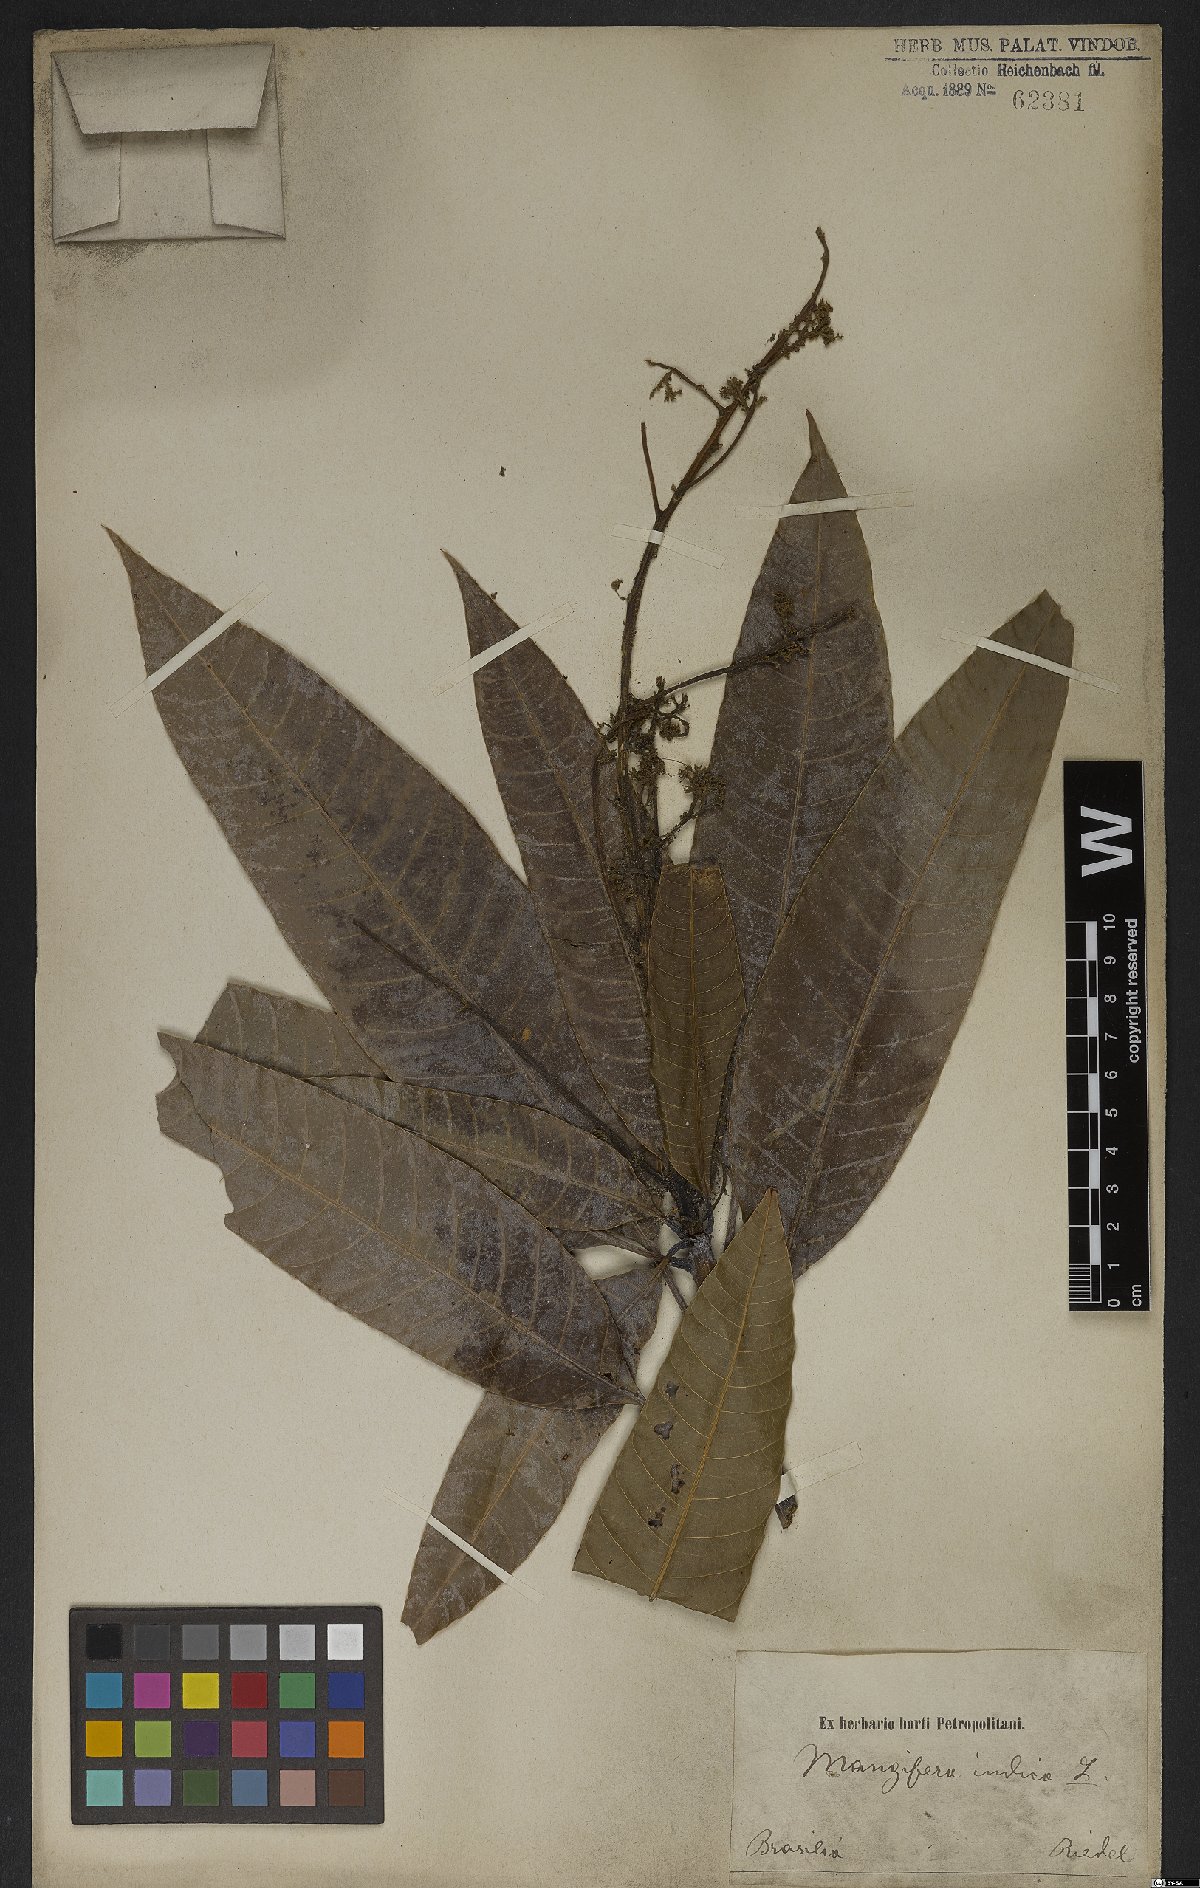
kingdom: Plantae
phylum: Tracheophyta
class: Magnoliopsida
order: Sapindales
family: Anacardiaceae
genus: Mangifera
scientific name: Mangifera indica
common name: Mango
